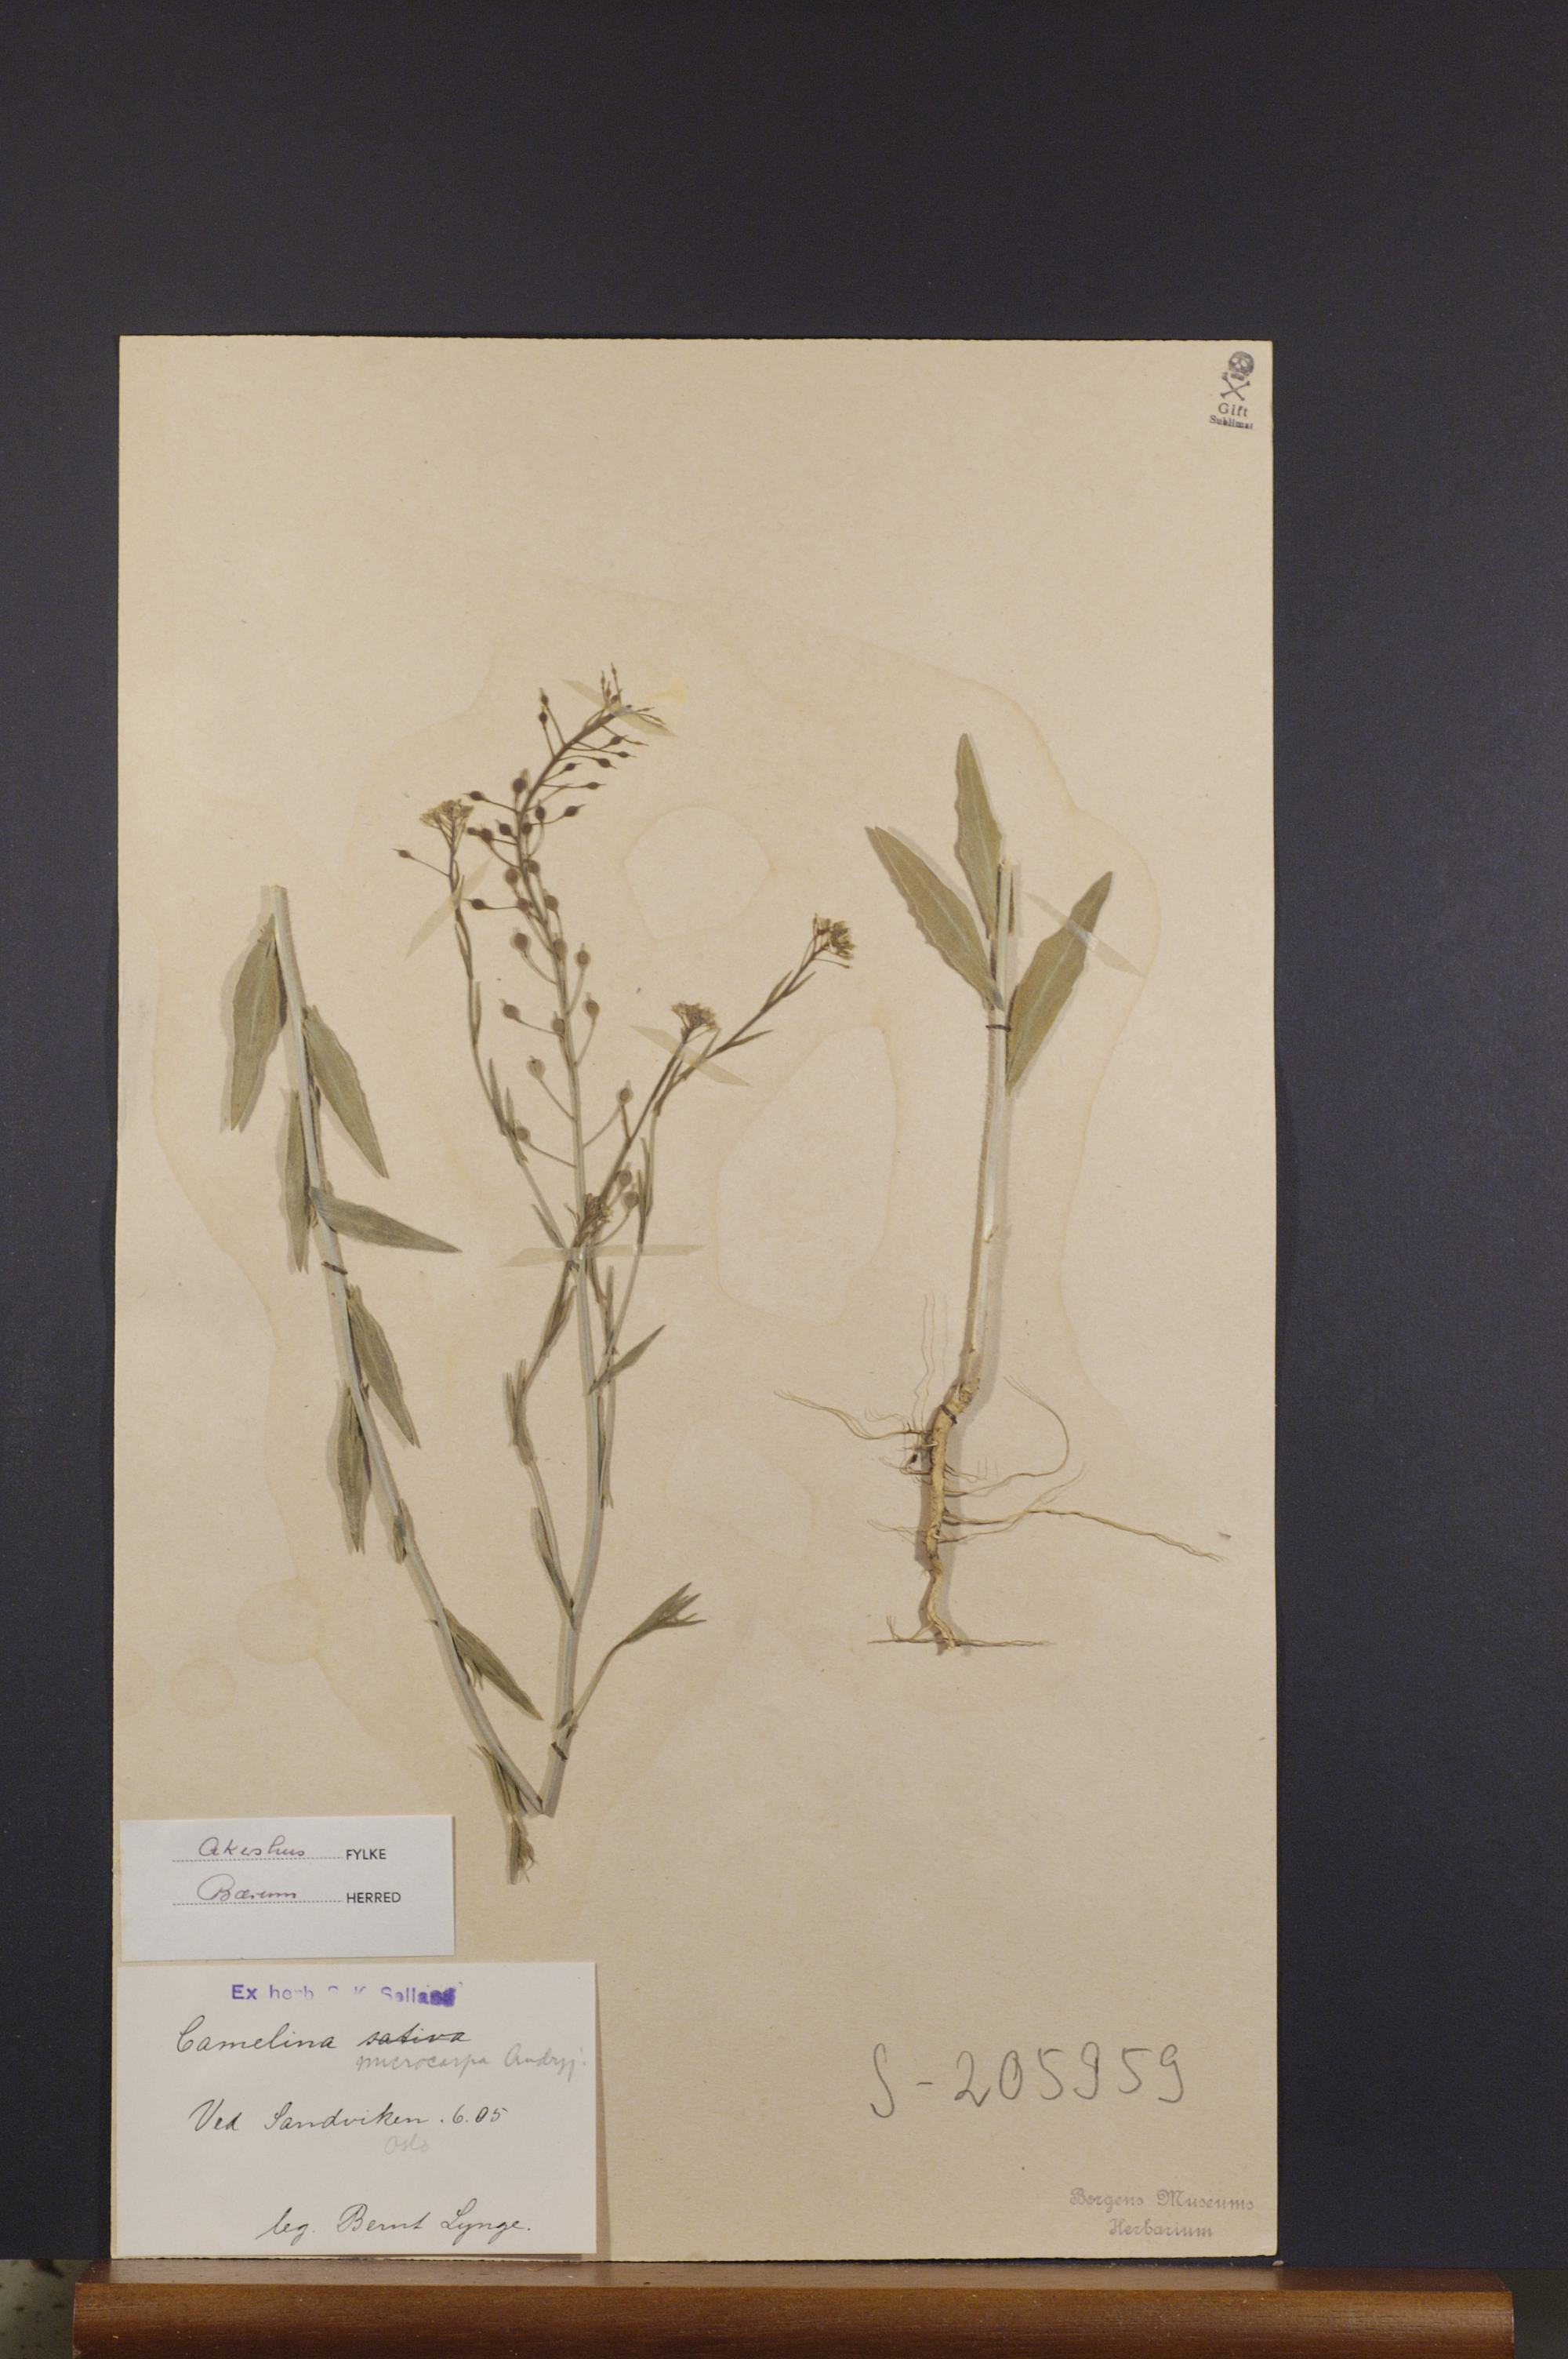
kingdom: Plantae
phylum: Tracheophyta
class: Magnoliopsida
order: Brassicales
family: Brassicaceae
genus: Camelina
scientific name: Camelina sativa
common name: Gold-of-pleasure
